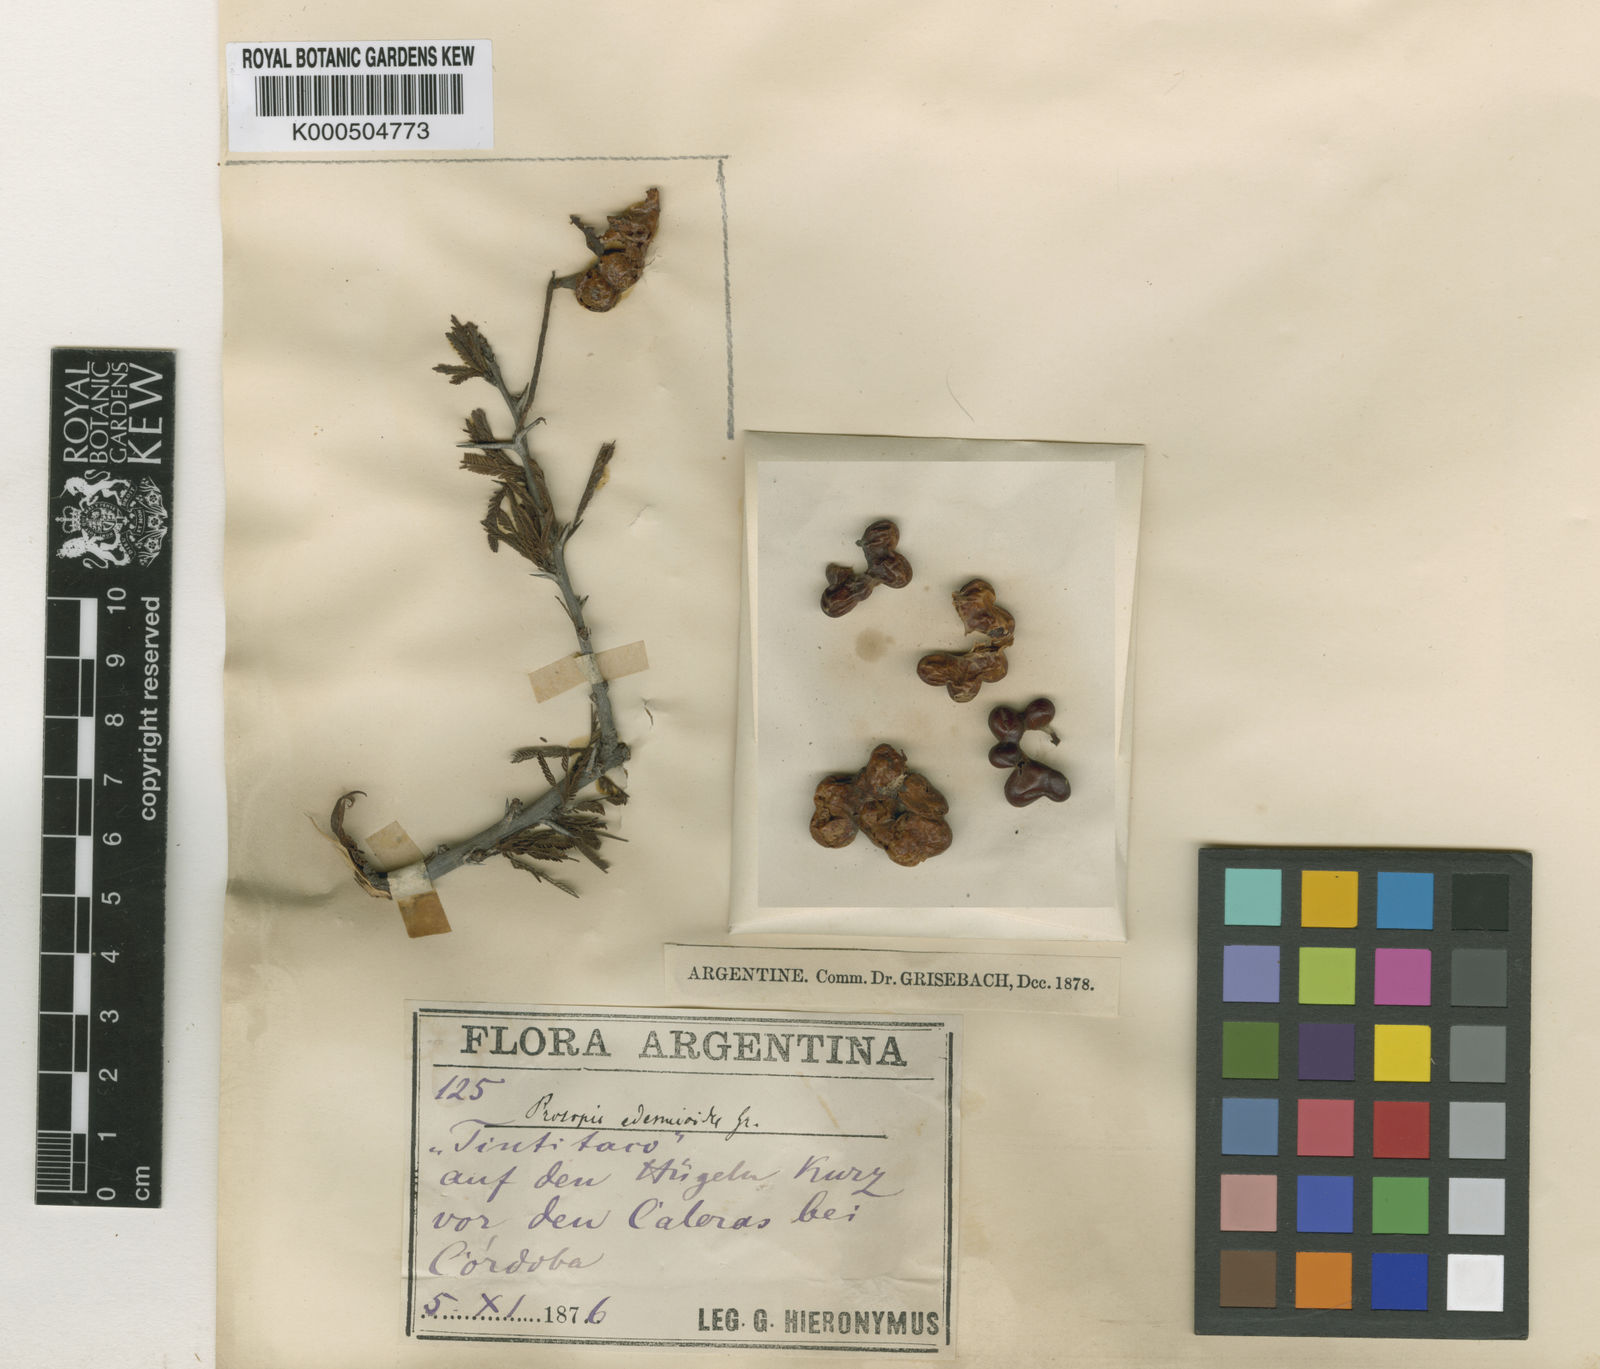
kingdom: Plantae
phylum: Tracheophyta
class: Magnoliopsida
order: Fabales
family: Fabaceae
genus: Prosopis
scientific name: Prosopis torquata
